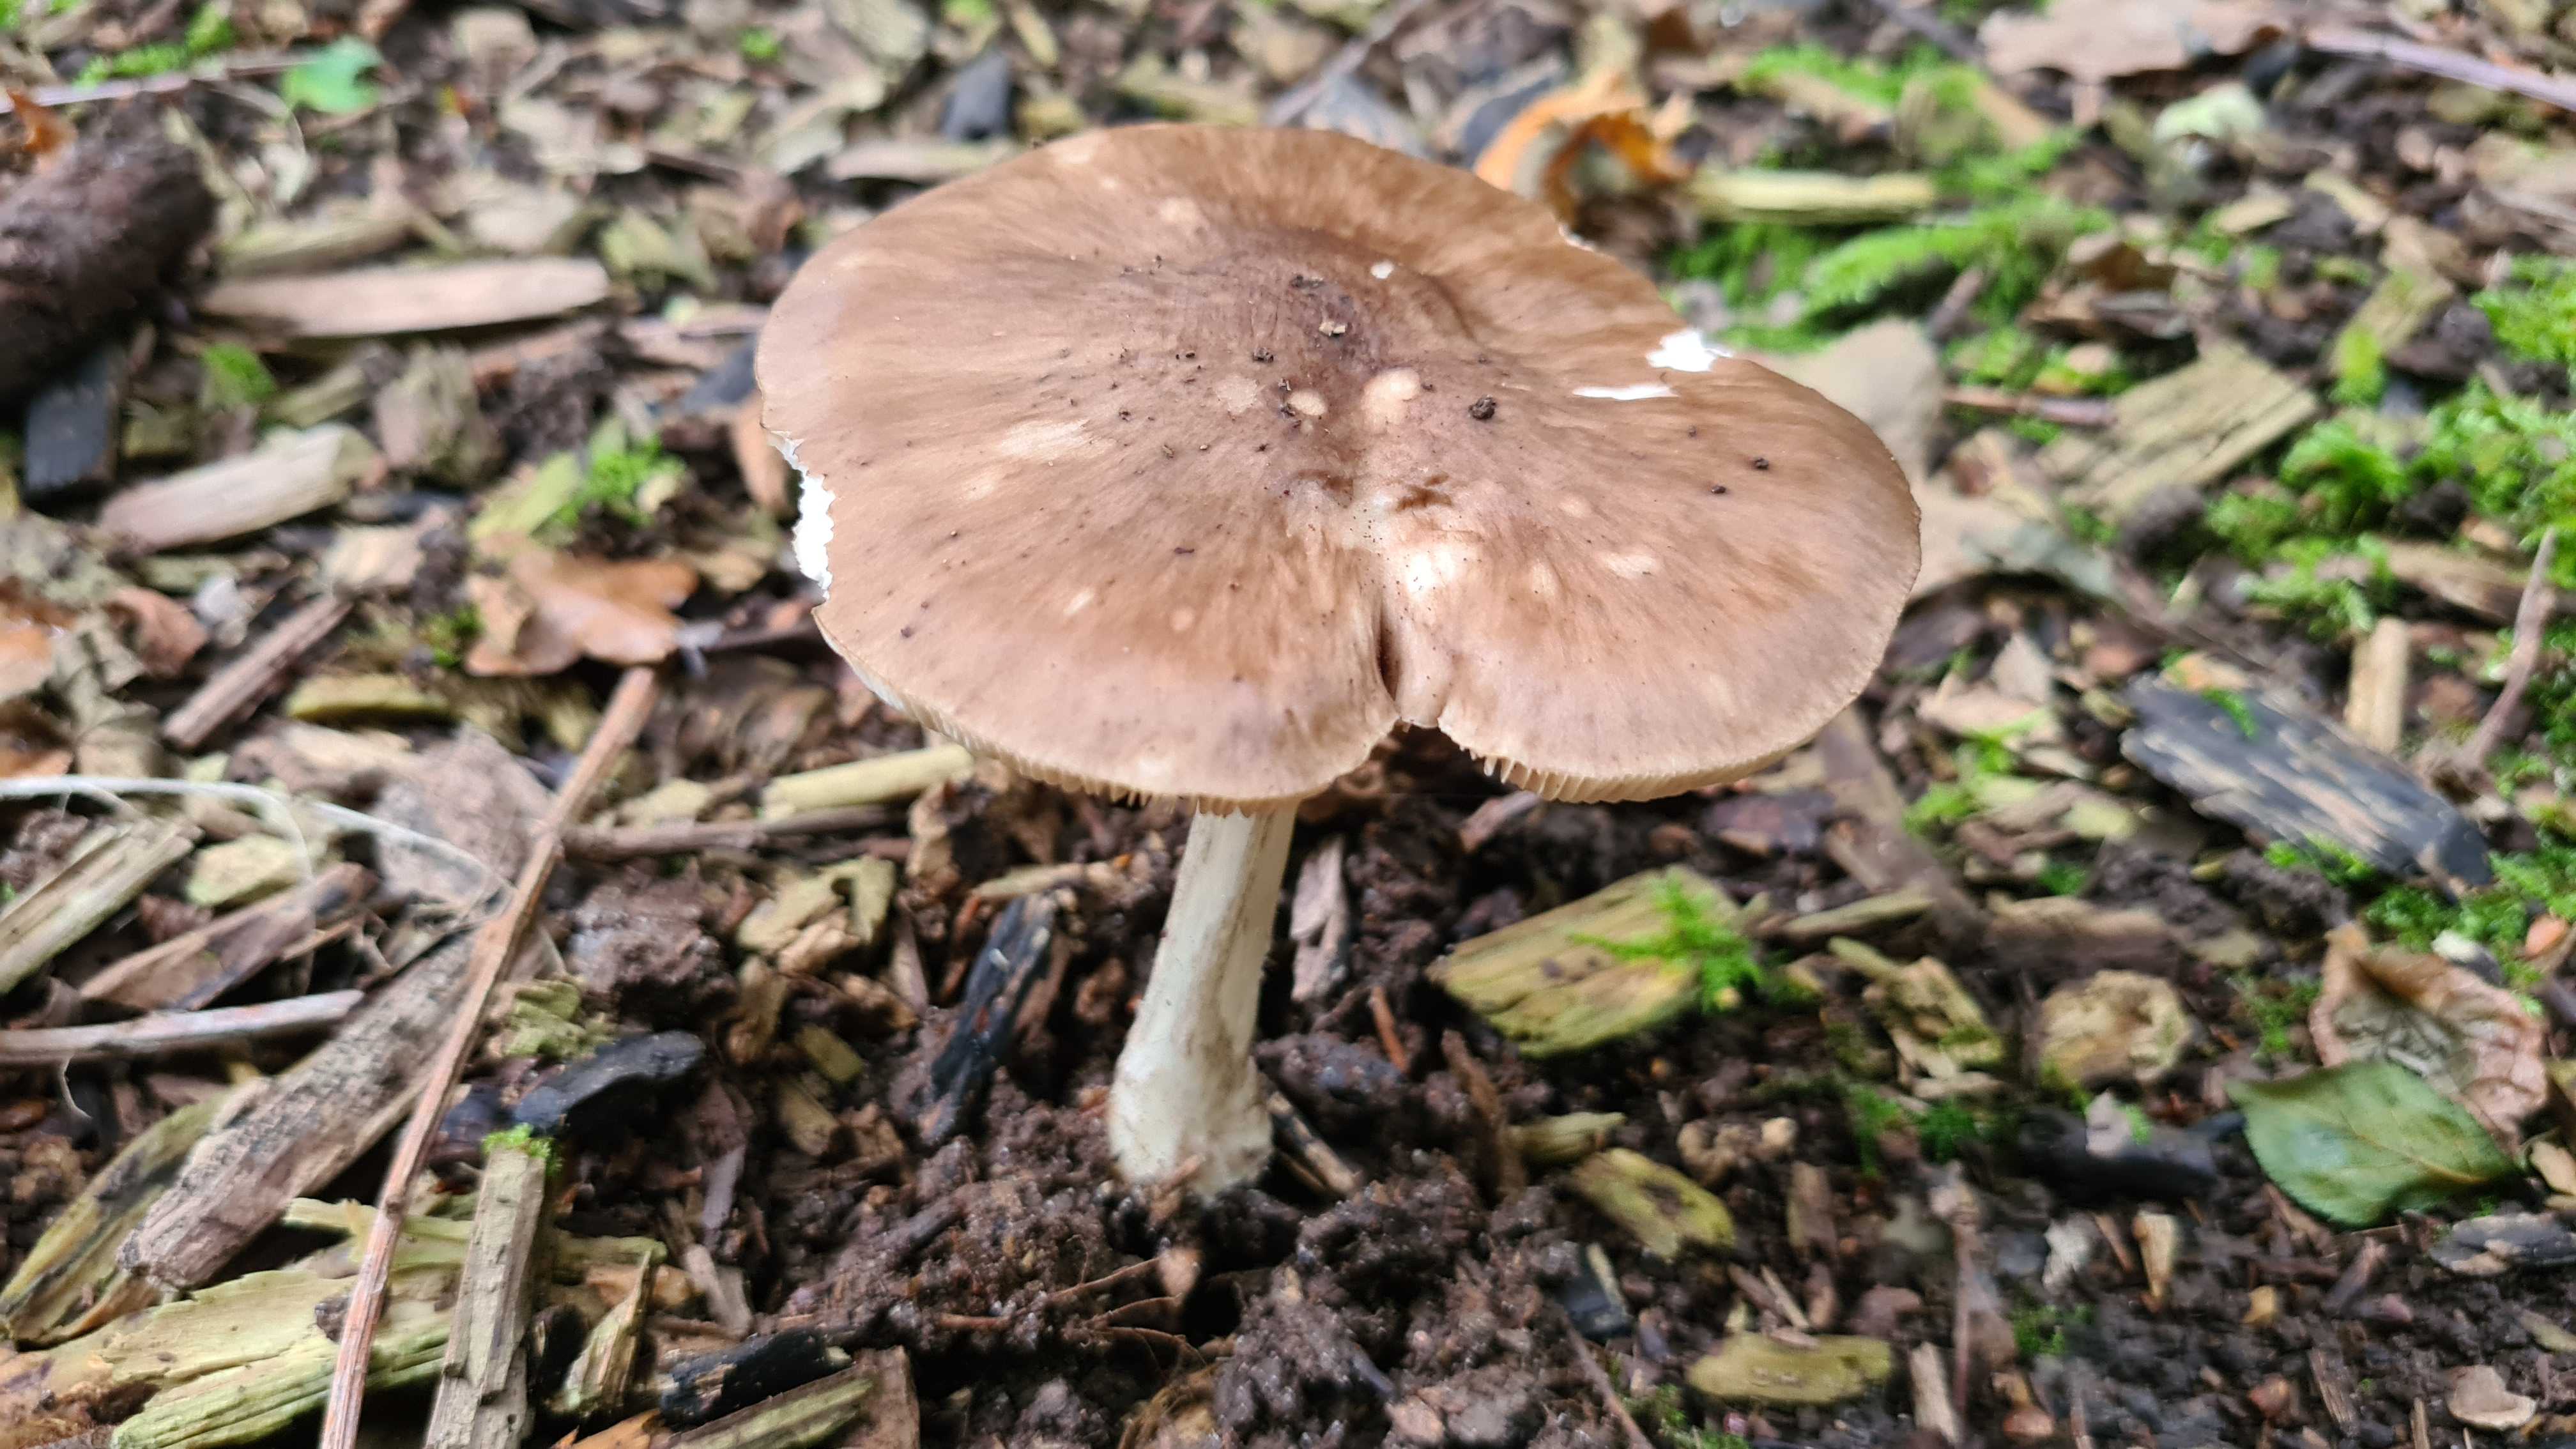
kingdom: Fungi
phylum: Basidiomycota
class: Agaricomycetes
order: Agaricales
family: Pluteaceae
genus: Pluteus
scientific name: Pluteus cervinus
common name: sodfarvet skærmhat
